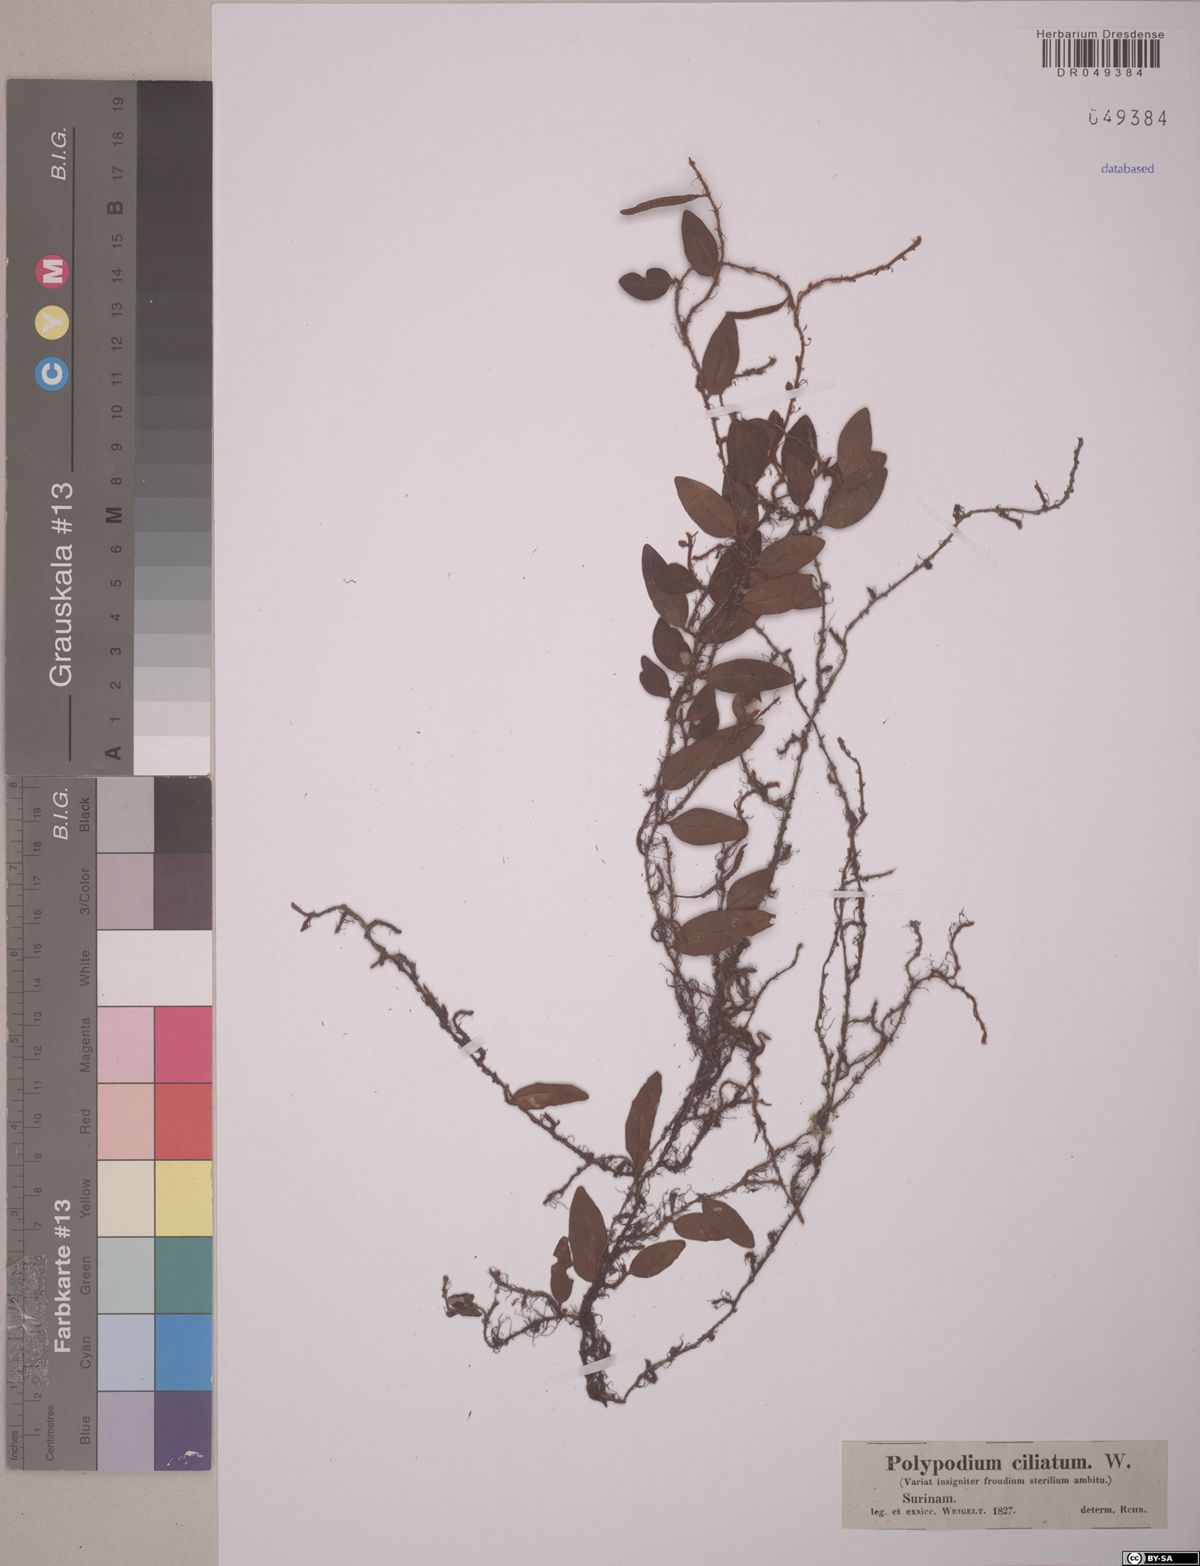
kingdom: Plantae
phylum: Tracheophyta
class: Polypodiopsida
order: Polypodiales
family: Polypodiaceae
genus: Microgramma
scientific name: Microgramma reptans
